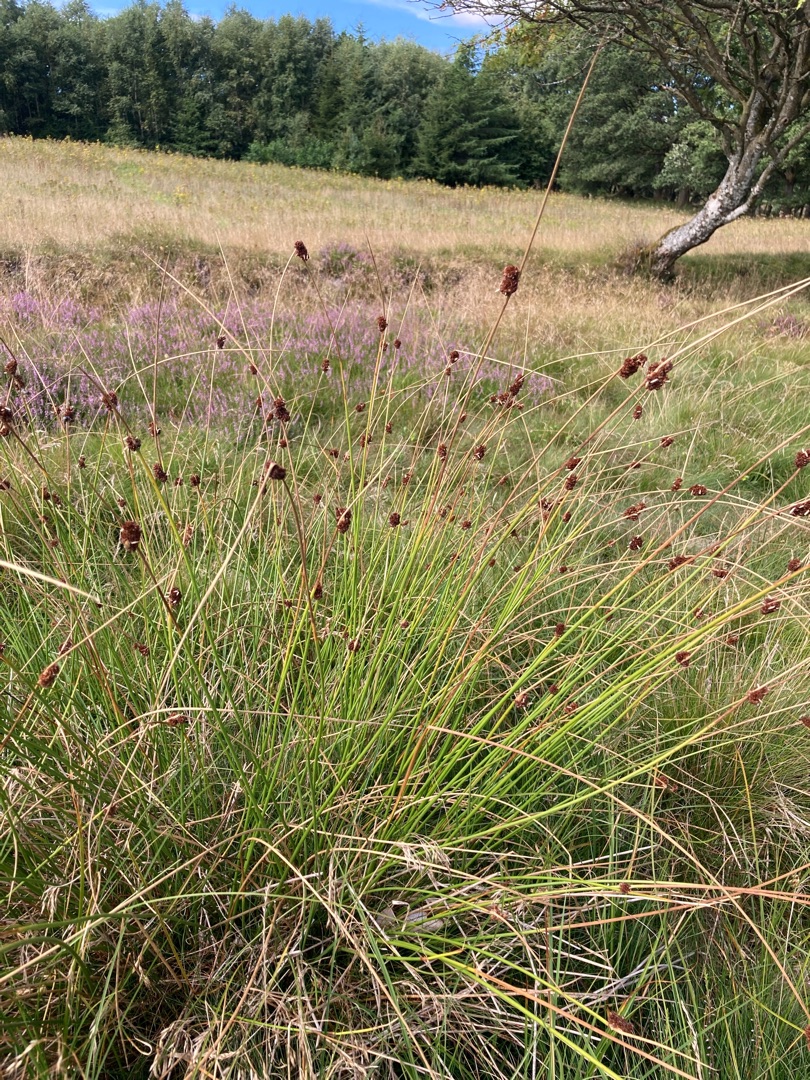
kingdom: Plantae
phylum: Tracheophyta
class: Liliopsida
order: Poales
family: Juncaceae
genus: Juncus
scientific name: Juncus conglomeratus
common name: Knop-siv
